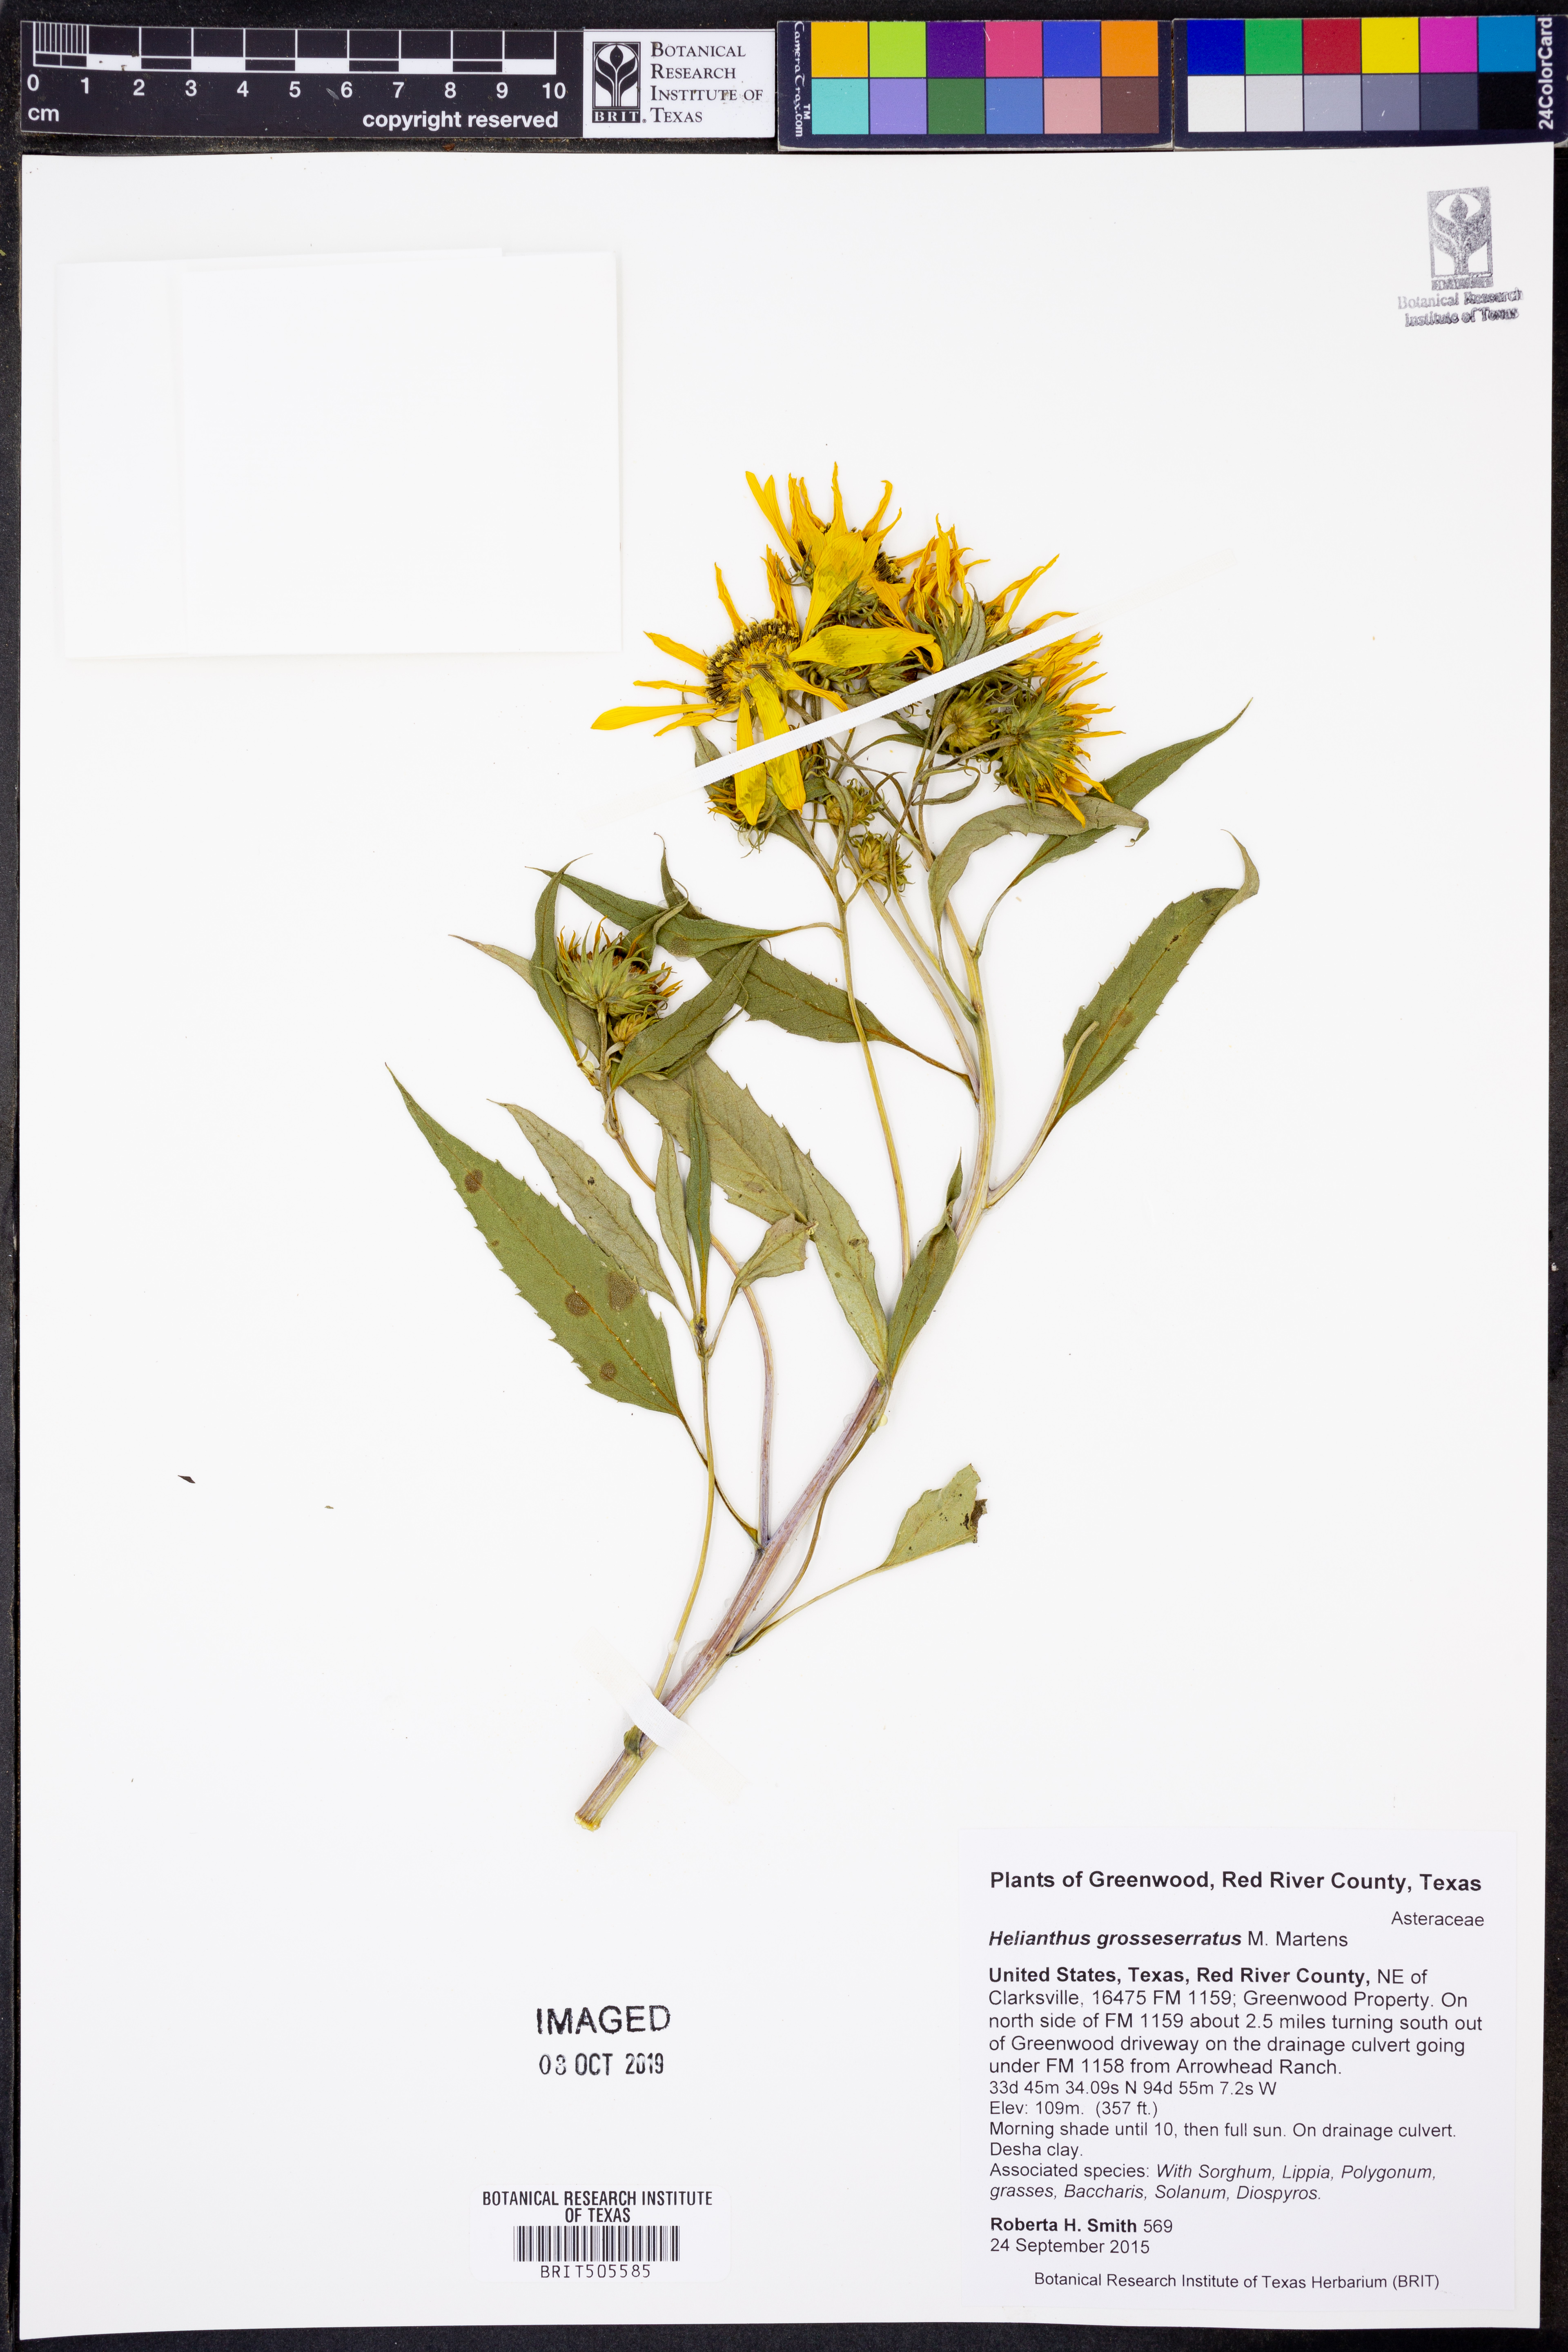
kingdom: Plantae
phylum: Tracheophyta
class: Magnoliopsida
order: Asterales
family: Asteraceae
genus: Helianthus
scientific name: Helianthus grosseserratus
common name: Sawtooth sunflower
